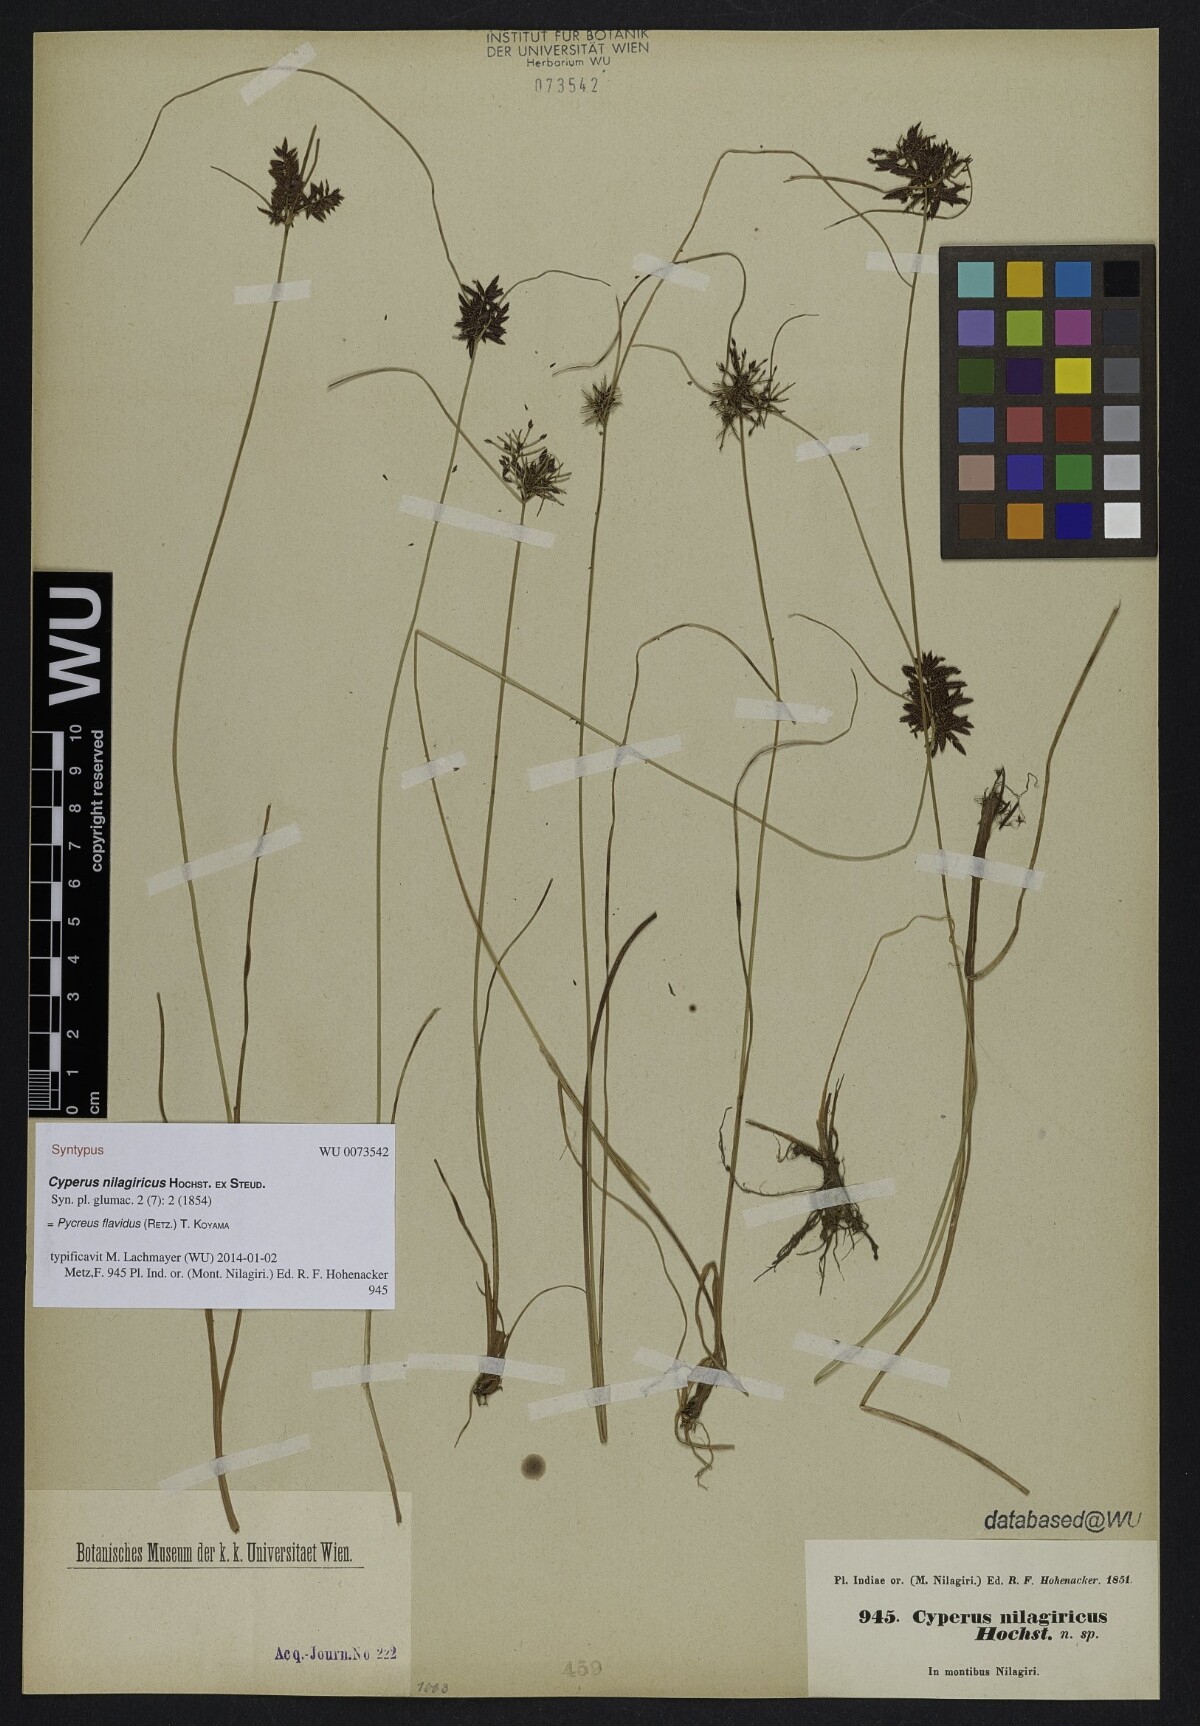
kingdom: Plantae
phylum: Tracheophyta
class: Liliopsida
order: Poales
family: Cyperaceae
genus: Cyperus
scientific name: Cyperus flavidus
